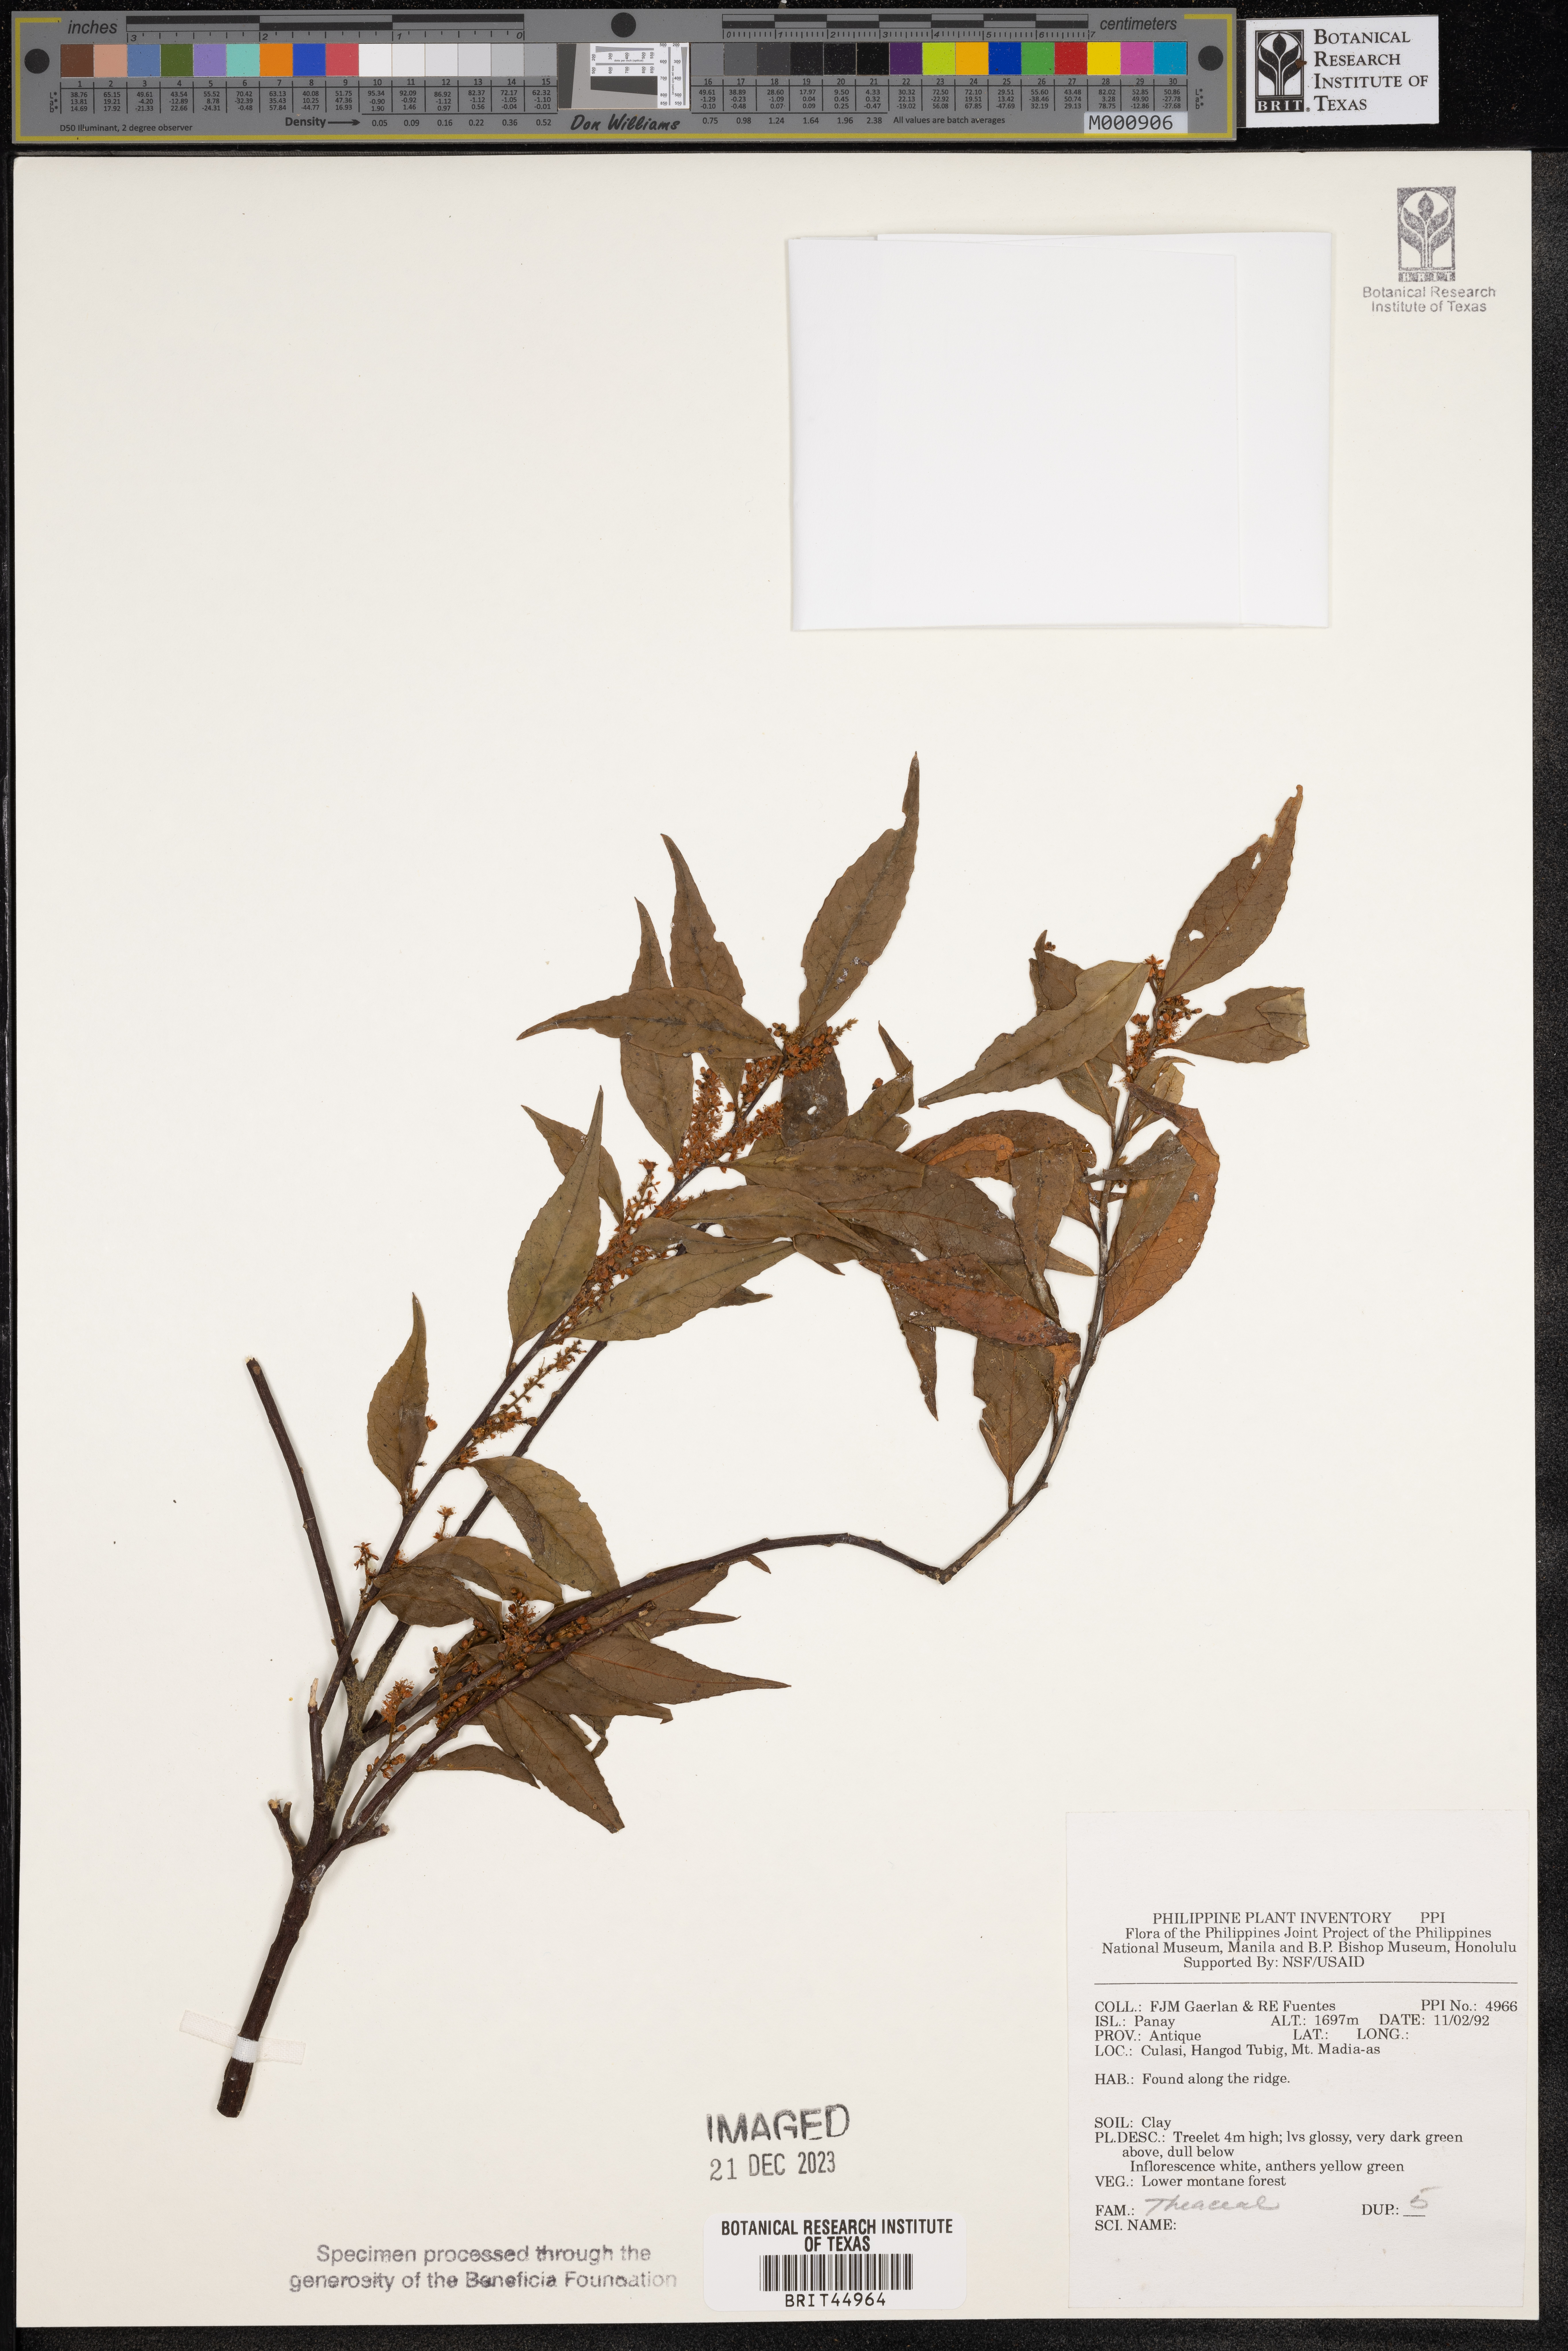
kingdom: Plantae
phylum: Tracheophyta
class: Magnoliopsida
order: Ericales
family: Theaceae
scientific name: Theaceae
